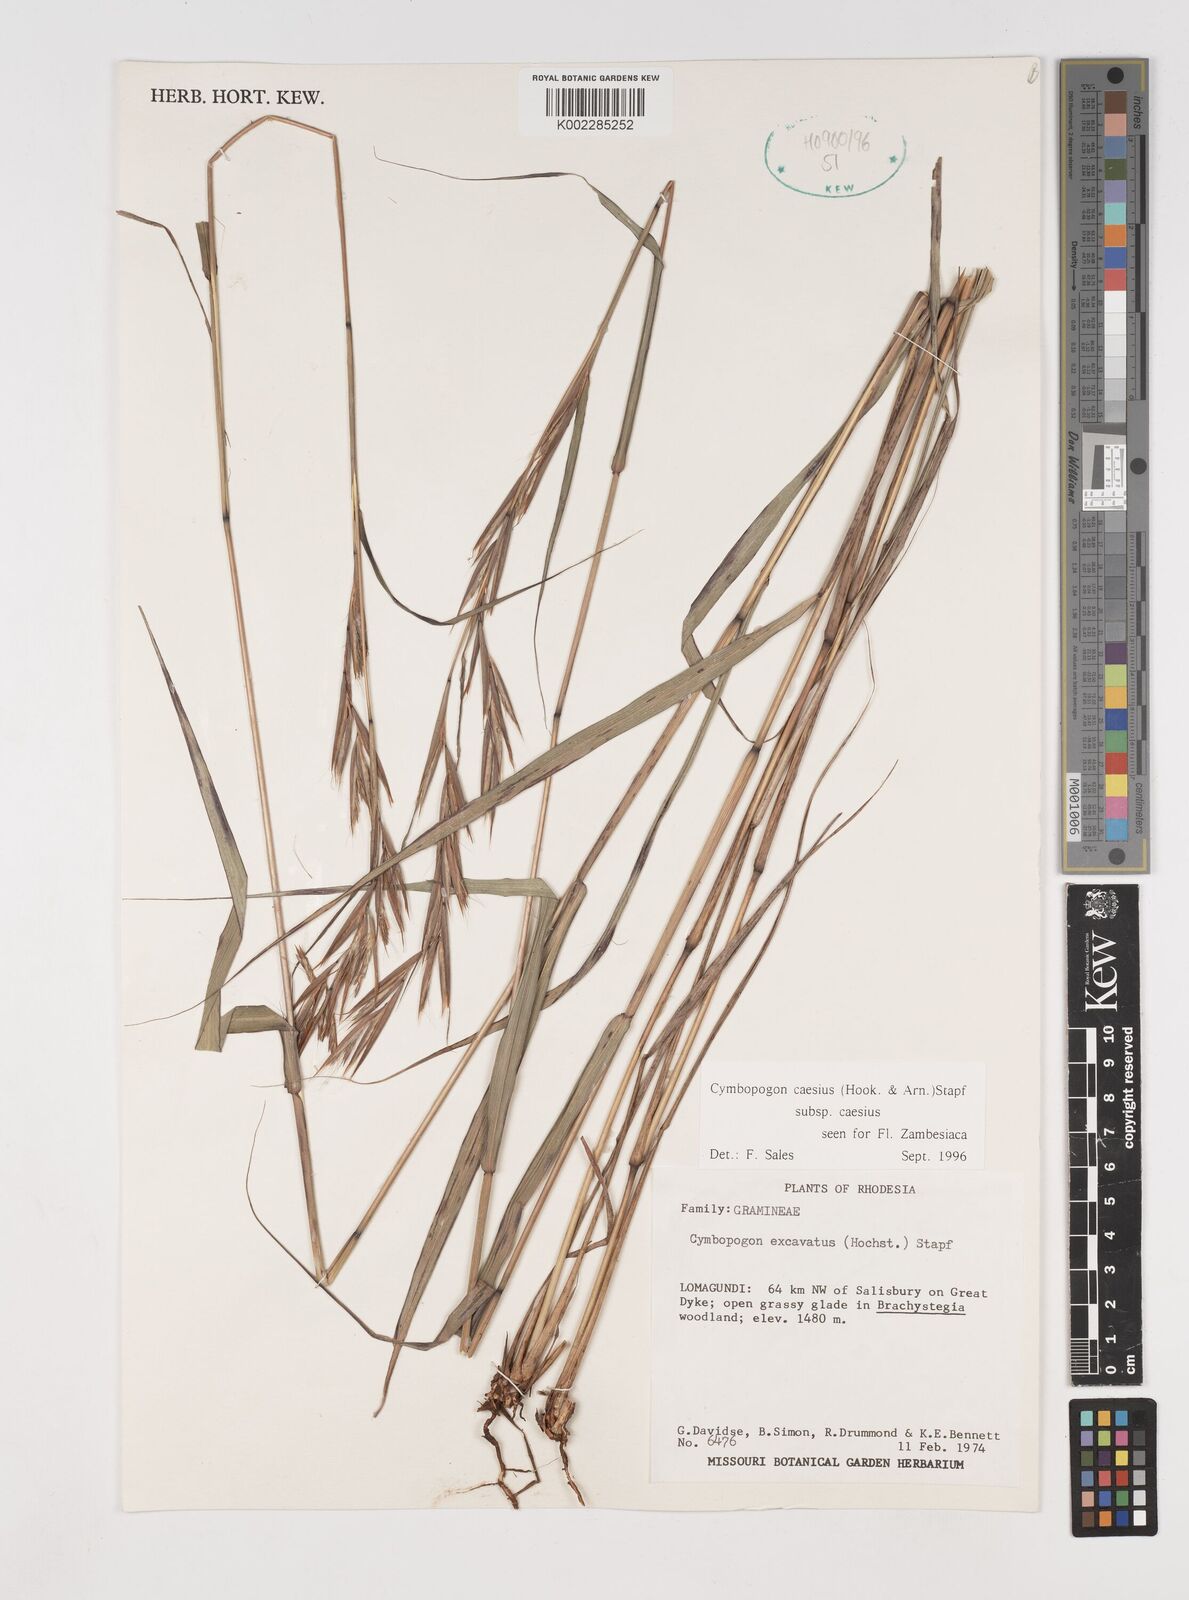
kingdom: Plantae
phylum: Tracheophyta
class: Liliopsida
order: Poales
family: Poaceae
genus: Cymbopogon
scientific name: Cymbopogon caesius
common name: Kachi grass
